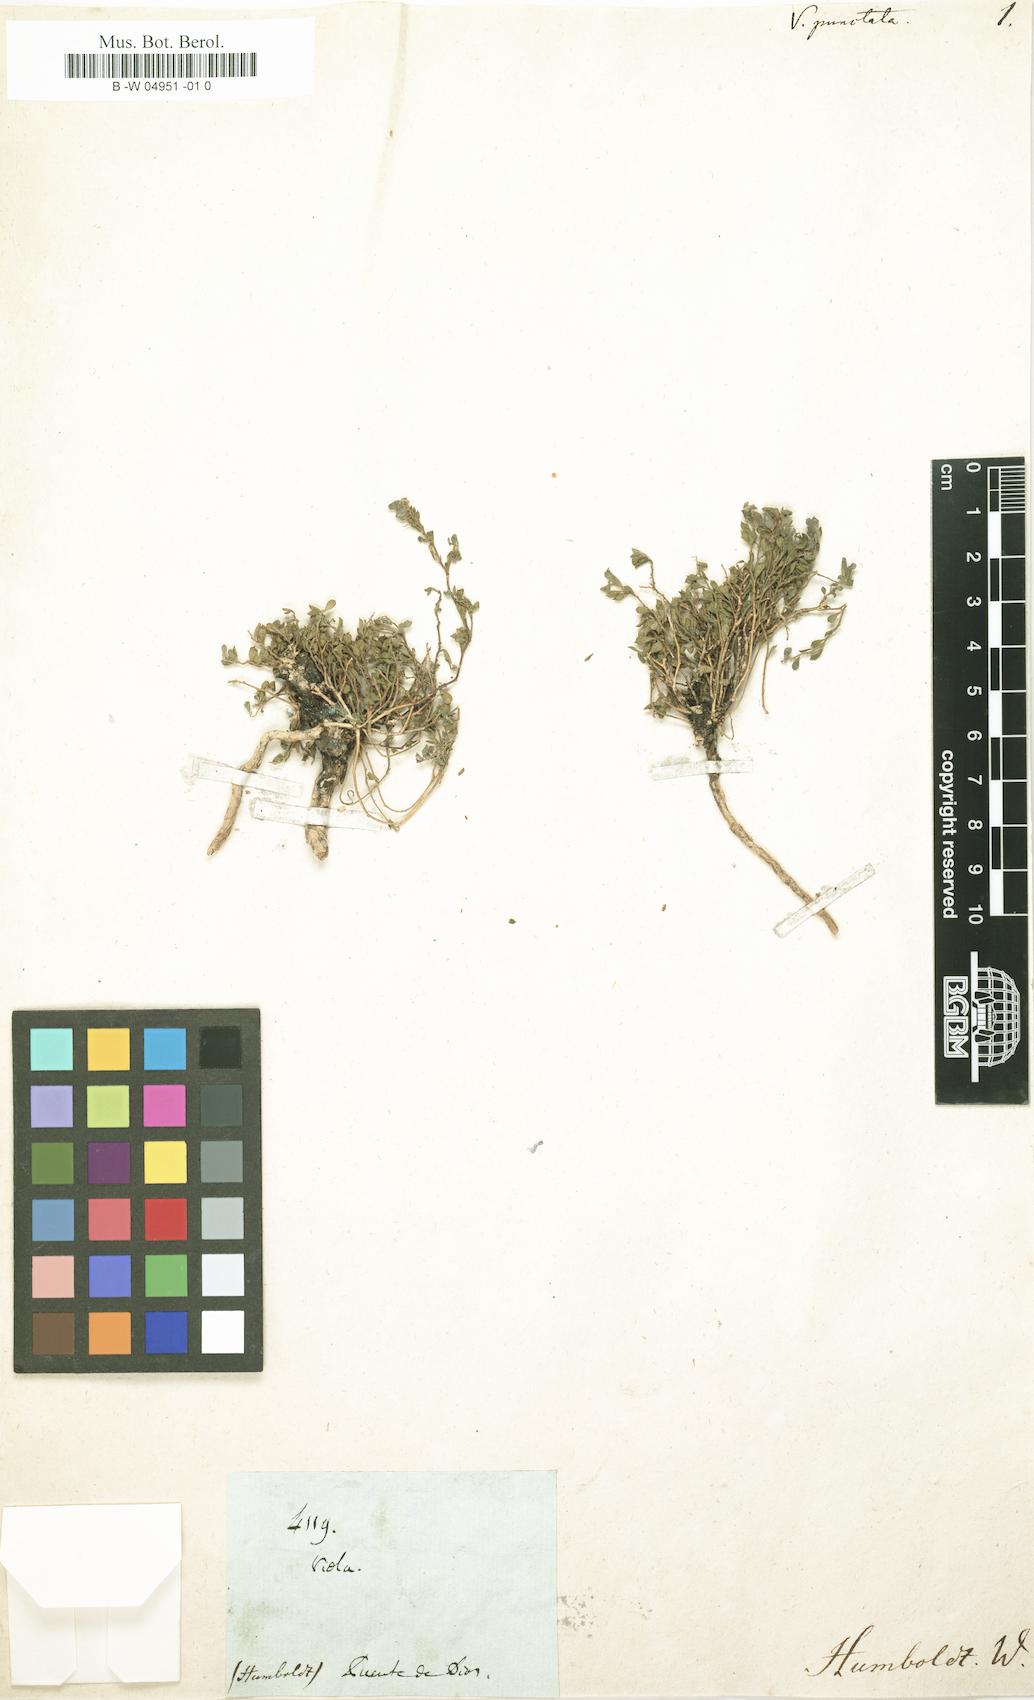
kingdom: Plantae
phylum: Tracheophyta
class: Magnoliopsida
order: Fabales
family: Polygalaceae
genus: Hebecarpa
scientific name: Hebecarpa punctata
